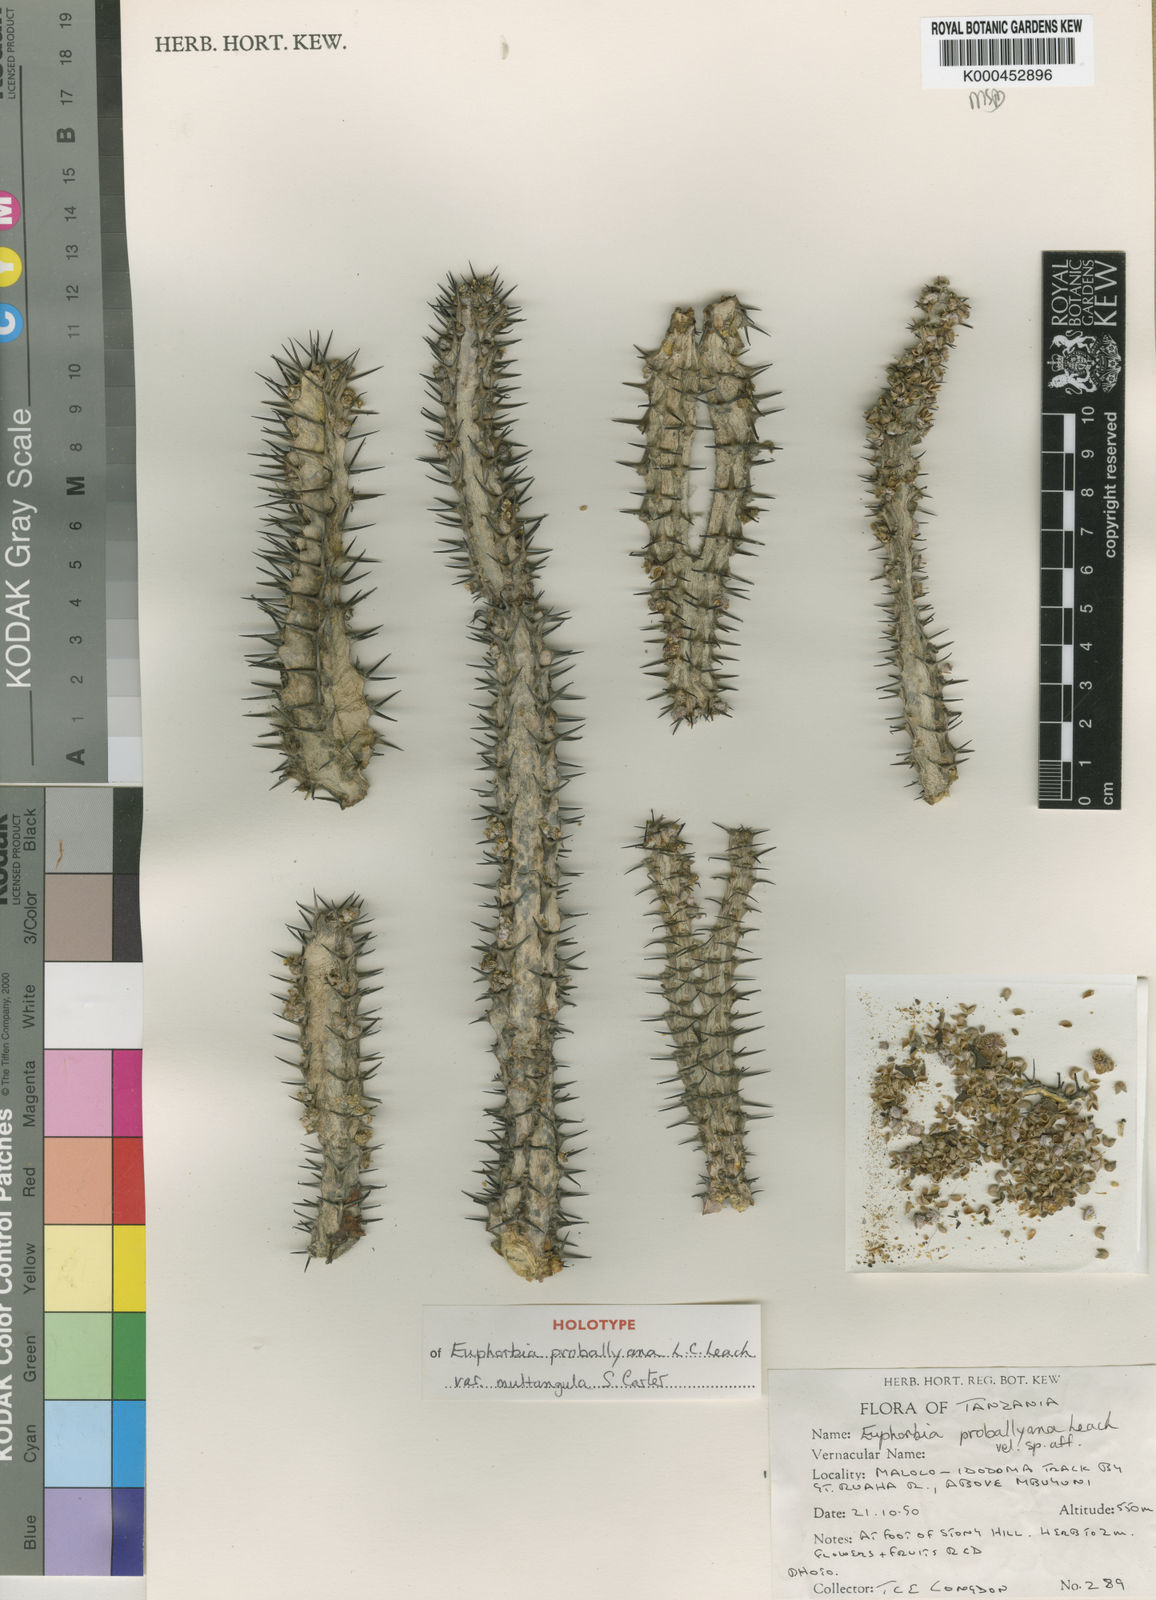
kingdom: Plantae
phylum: Tracheophyta
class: Magnoliopsida
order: Malpighiales
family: Euphorbiaceae
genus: Euphorbia
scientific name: Euphorbia proballyana
